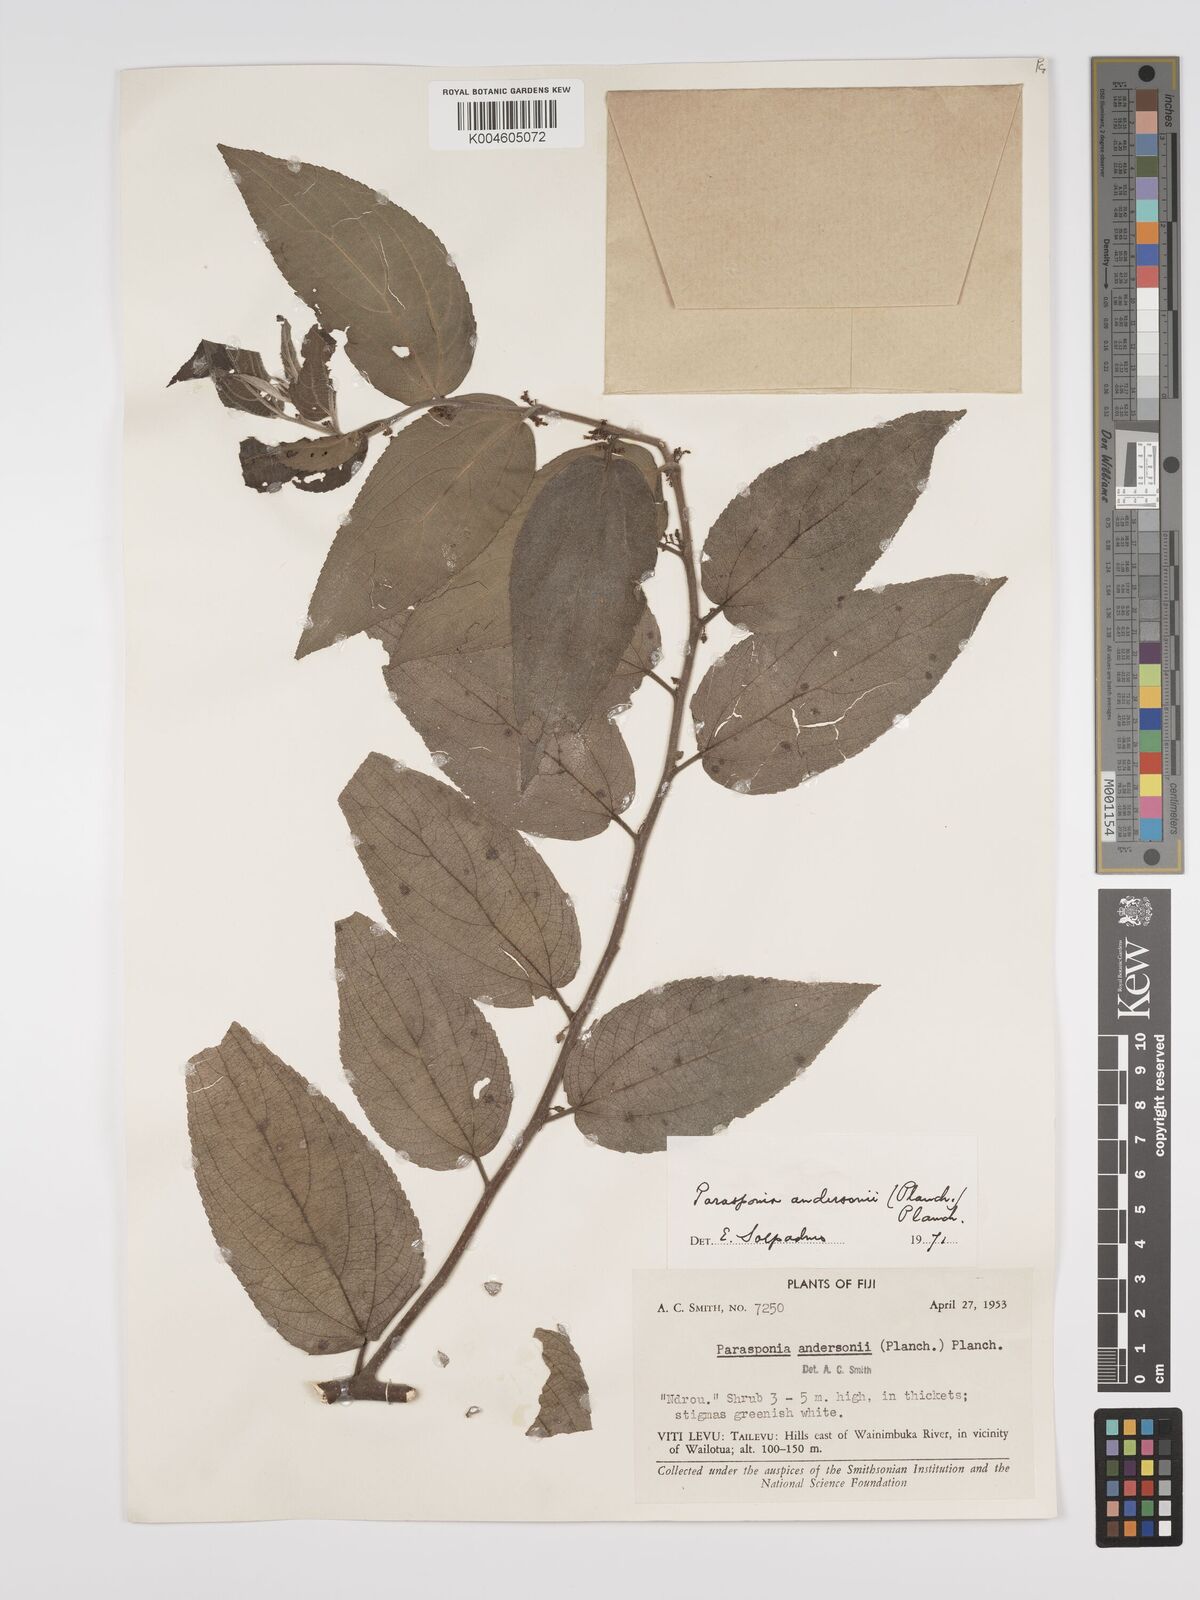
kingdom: Plantae
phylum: Tracheophyta
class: Magnoliopsida
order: Rosales
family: Cannabaceae
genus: Trema
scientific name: Trema andersonii
